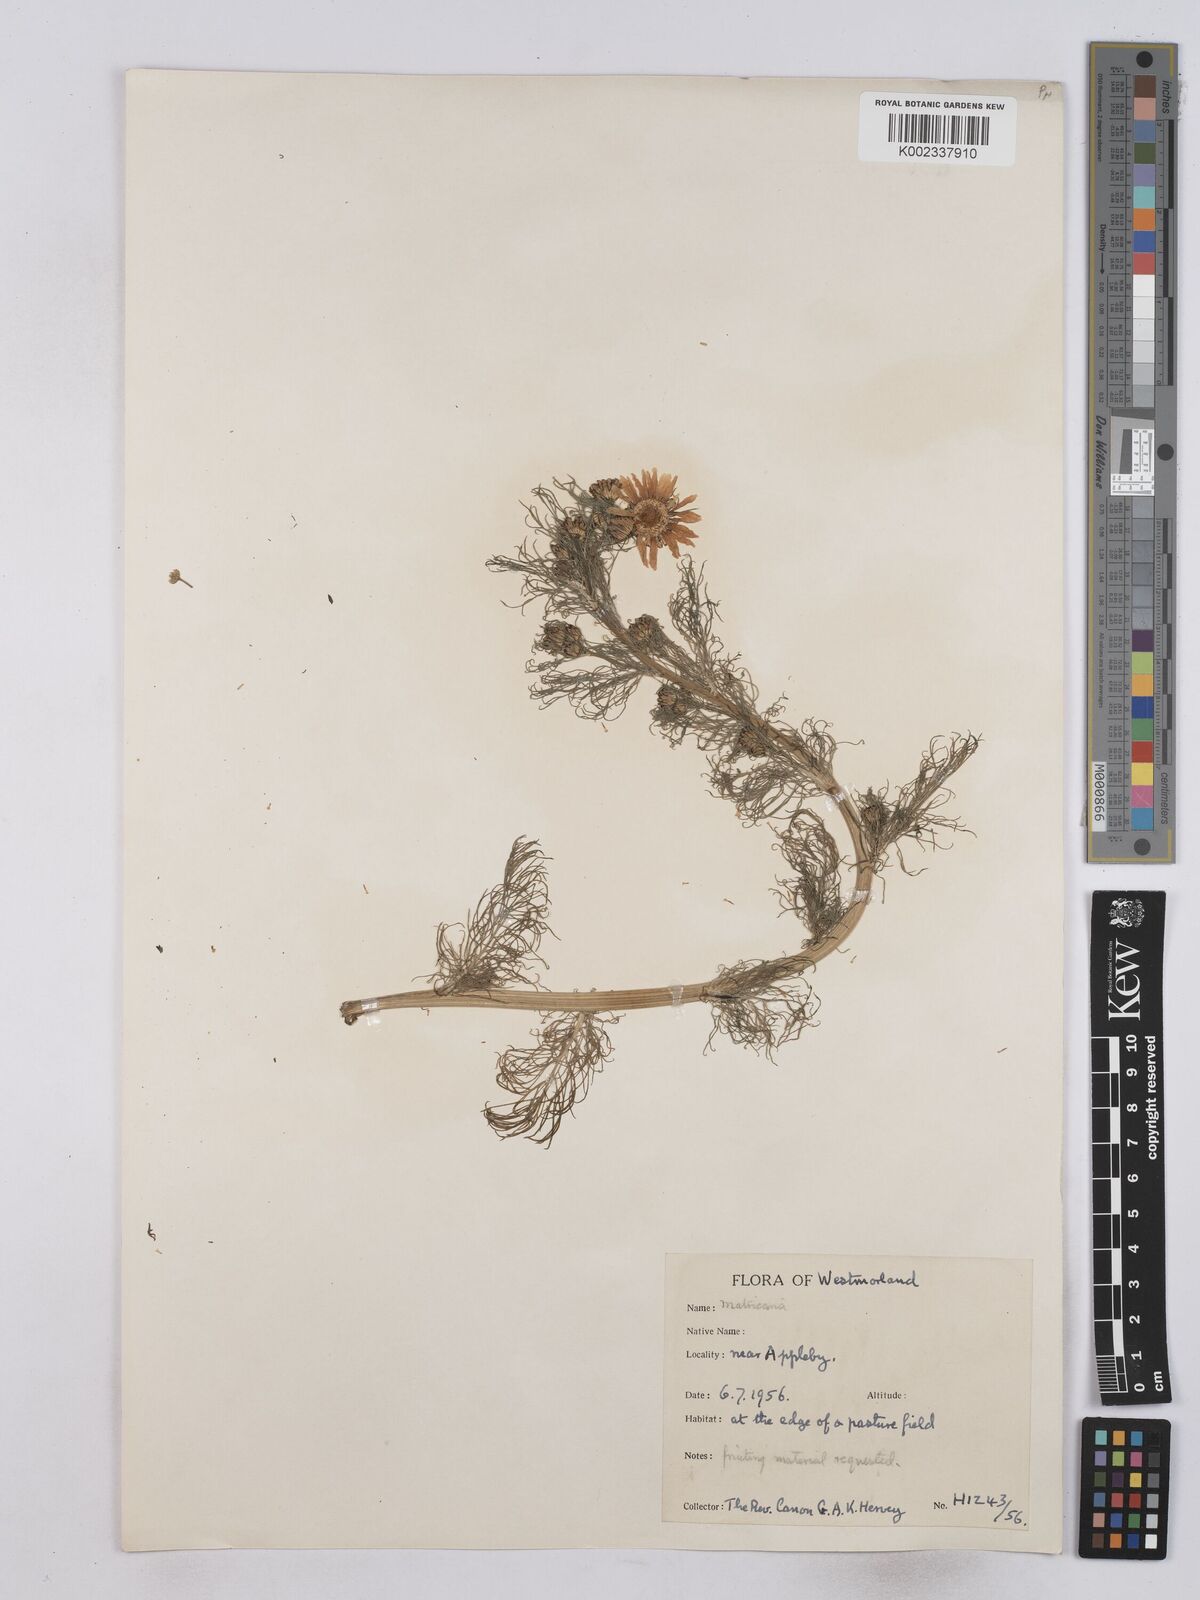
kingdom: Plantae
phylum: Tracheophyta
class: Magnoliopsida
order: Asterales
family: Asteraceae
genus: Matricaria
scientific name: Matricaria discoidea
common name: Disc mayweed
